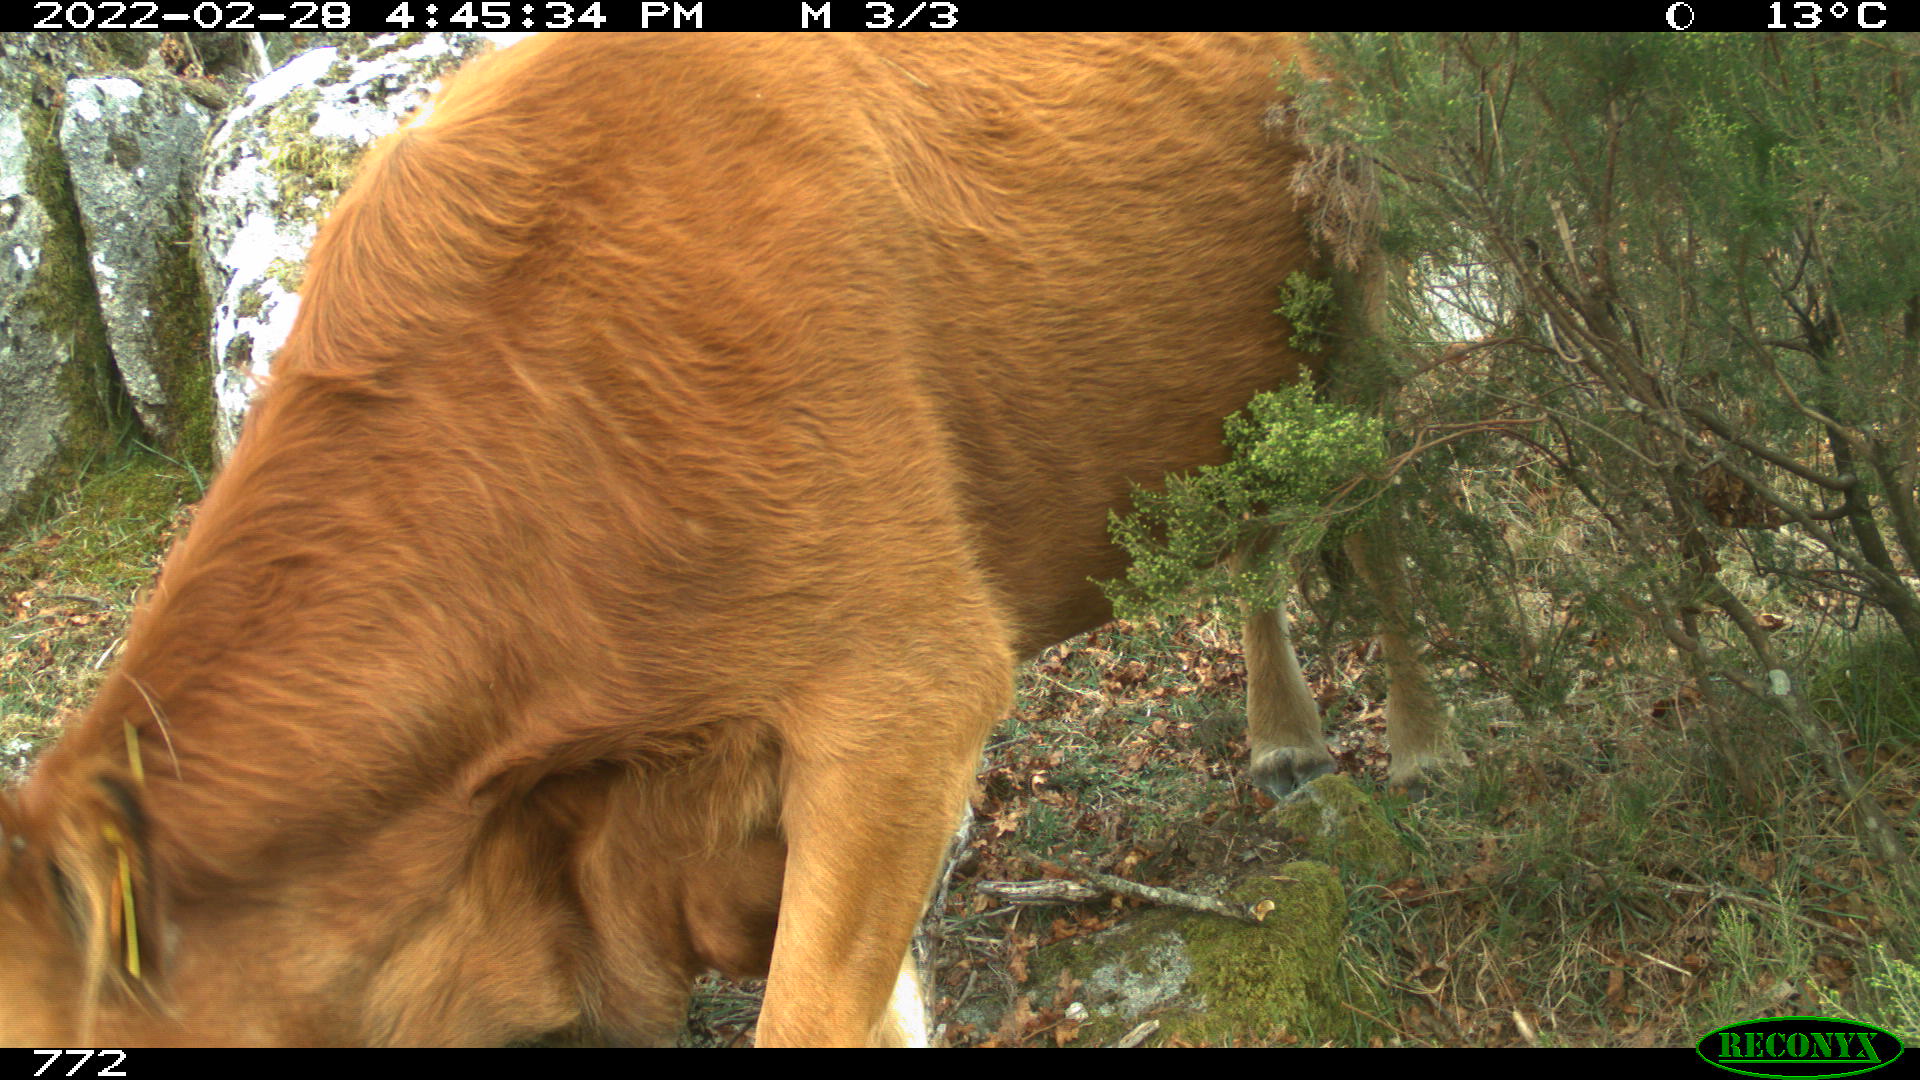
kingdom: Animalia
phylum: Chordata
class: Mammalia
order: Artiodactyla
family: Bovidae
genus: Bos
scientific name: Bos taurus
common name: Domesticated cattle
